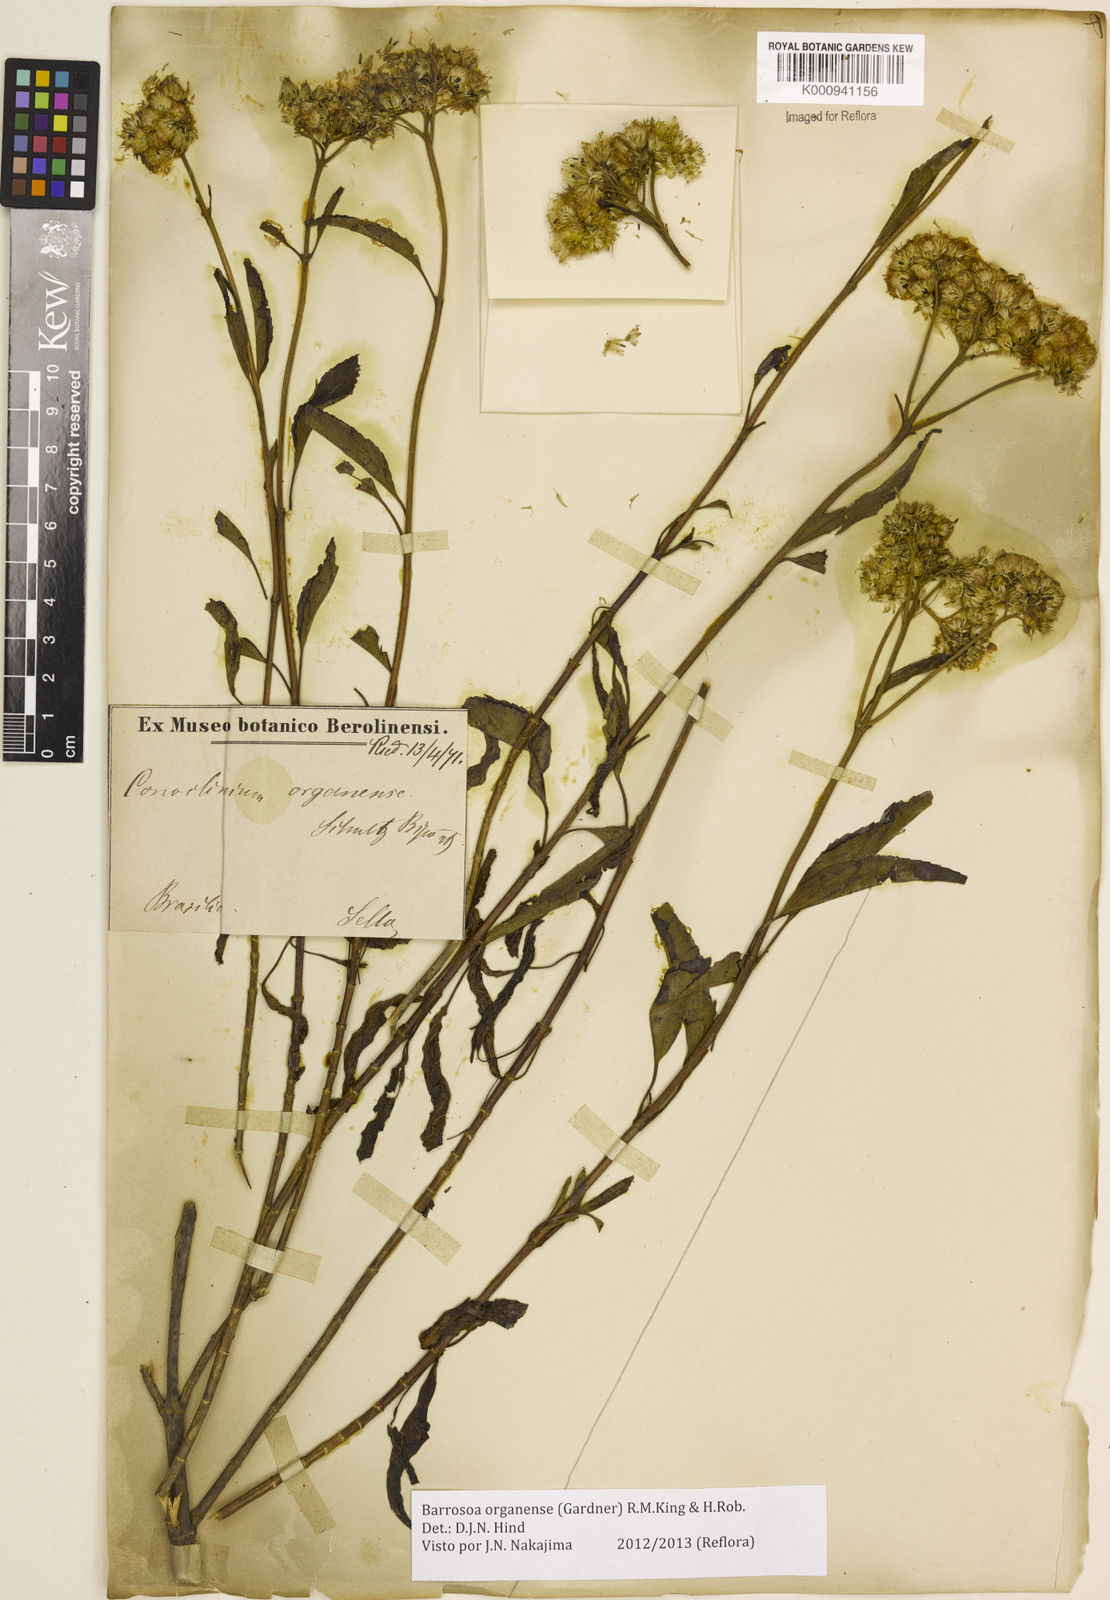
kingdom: Plantae
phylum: Tracheophyta
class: Magnoliopsida
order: Asterales
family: Asteraceae
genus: Barrosoa
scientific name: Barrosoa
